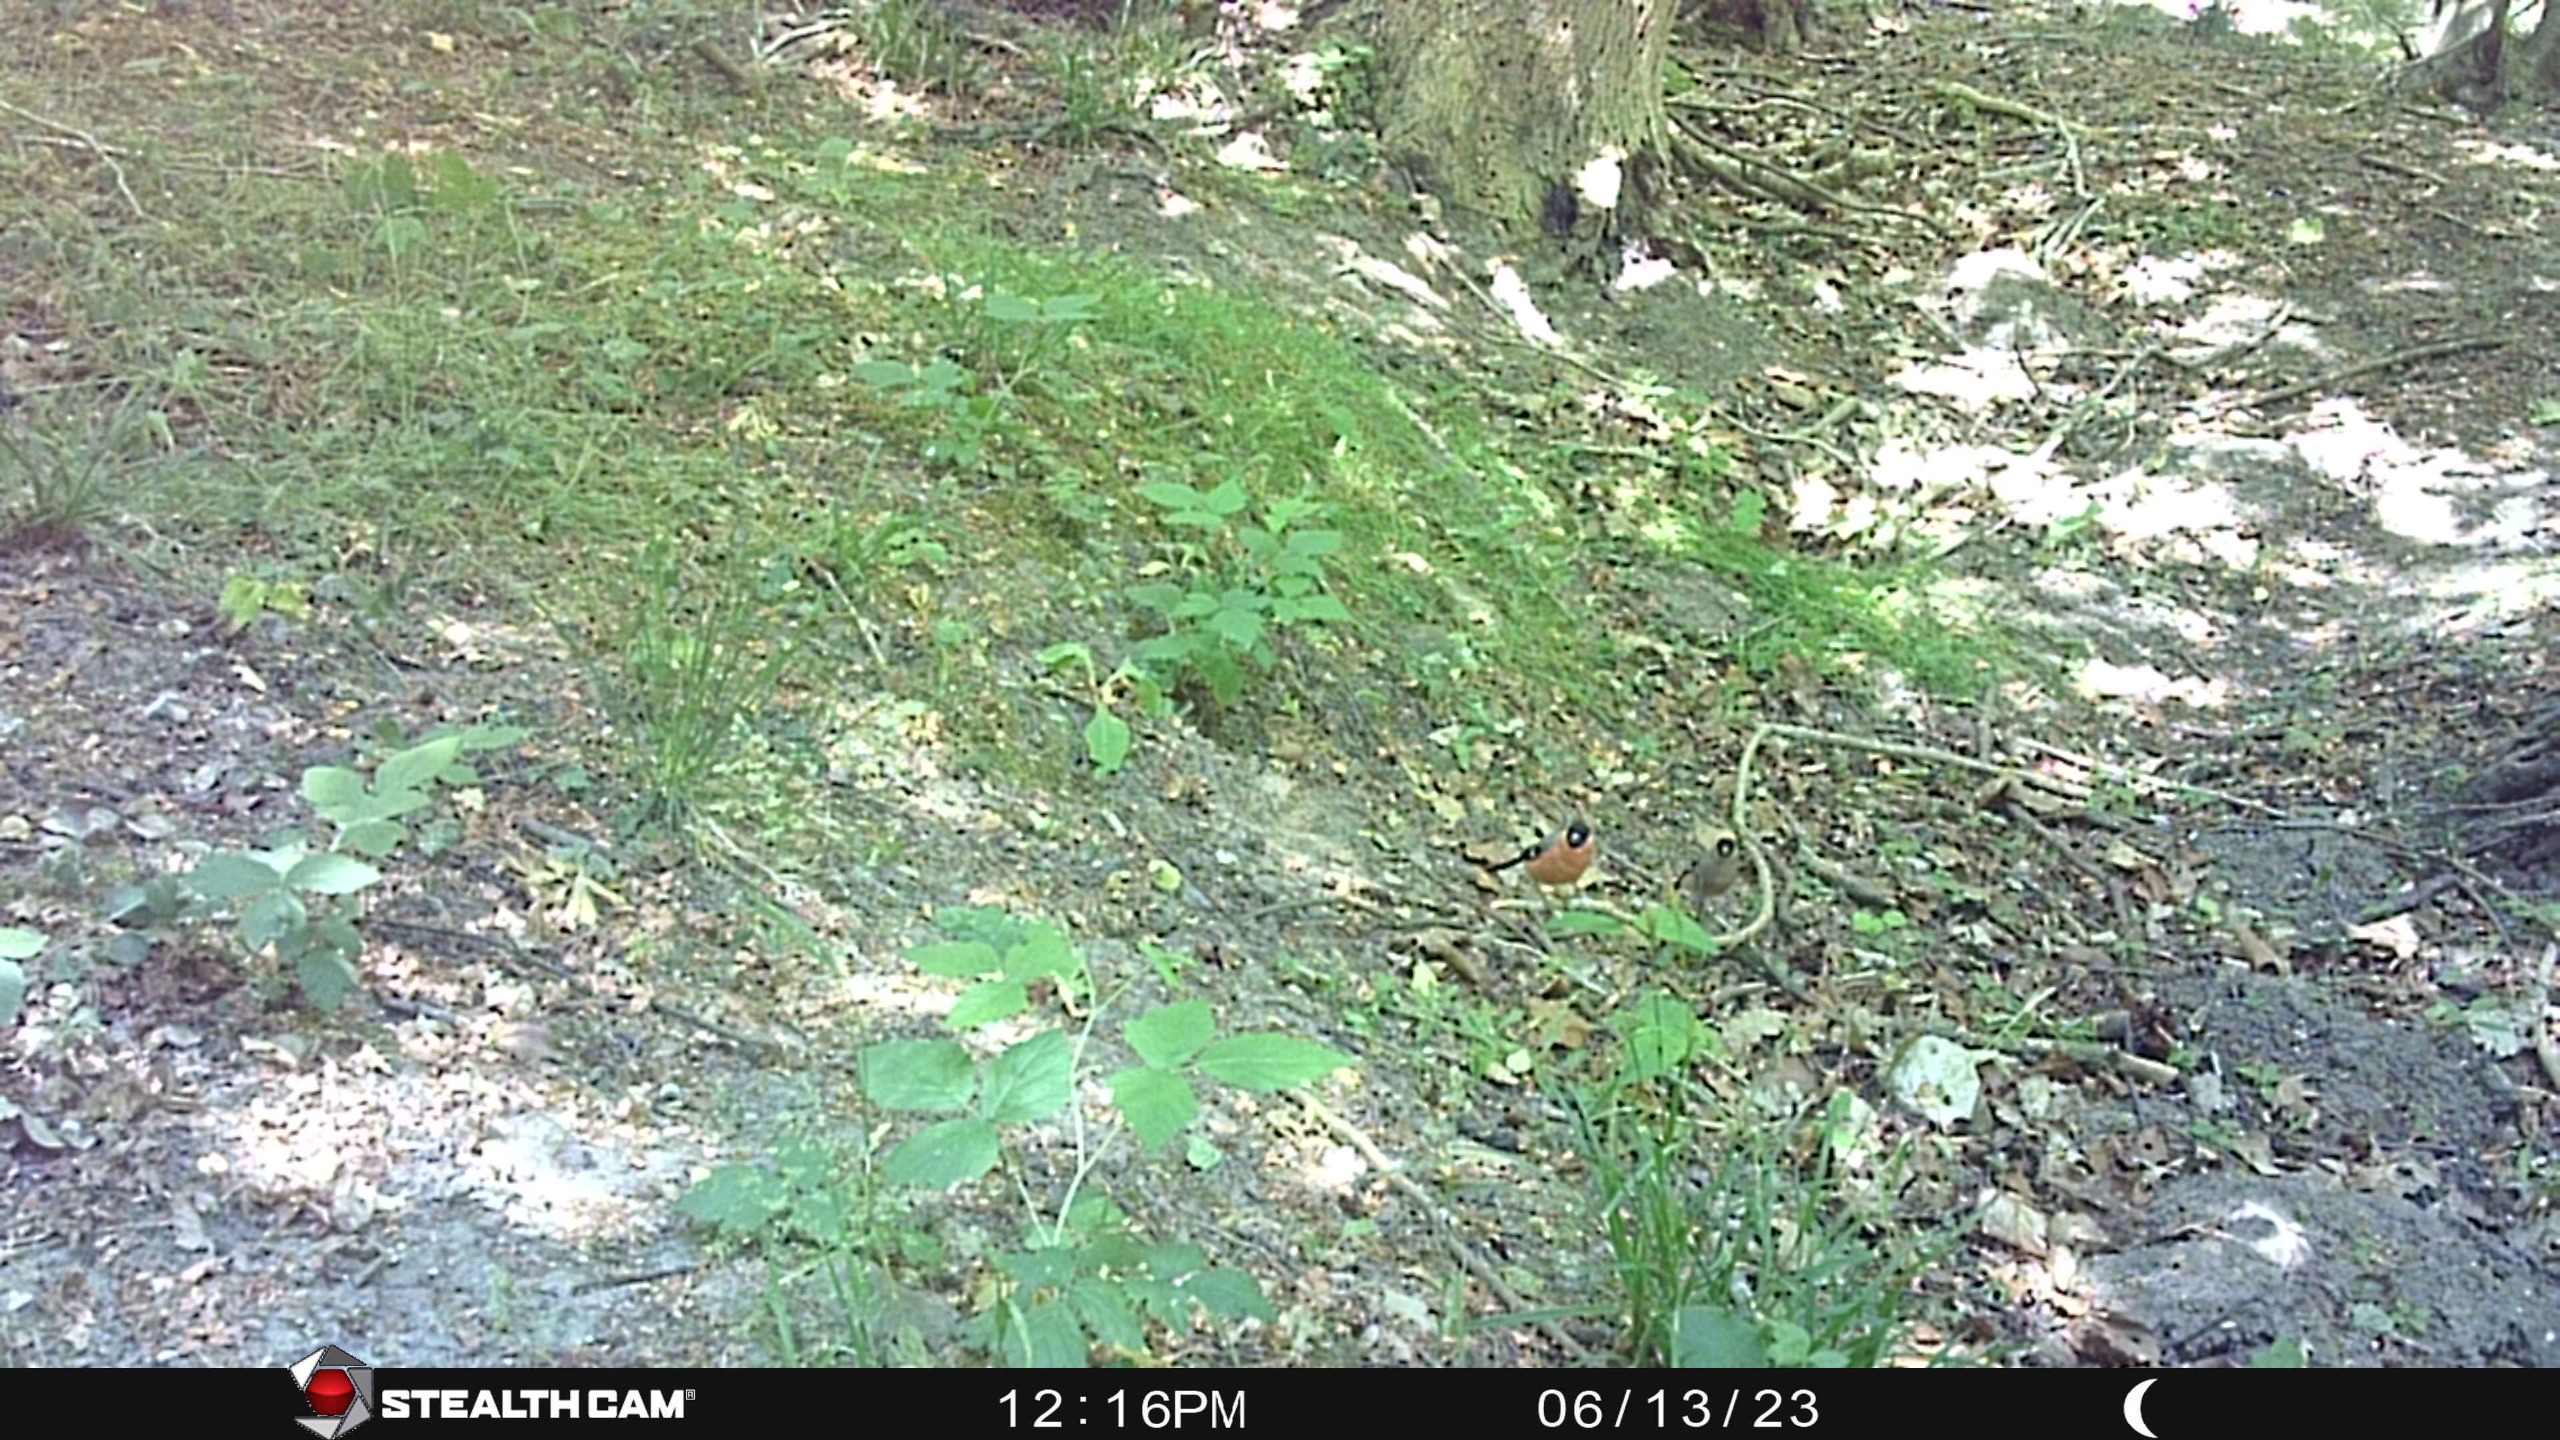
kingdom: Animalia
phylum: Chordata
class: Aves
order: Passeriformes
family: Fringillidae
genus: Pyrrhula
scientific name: Pyrrhula pyrrhula
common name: Dompap
